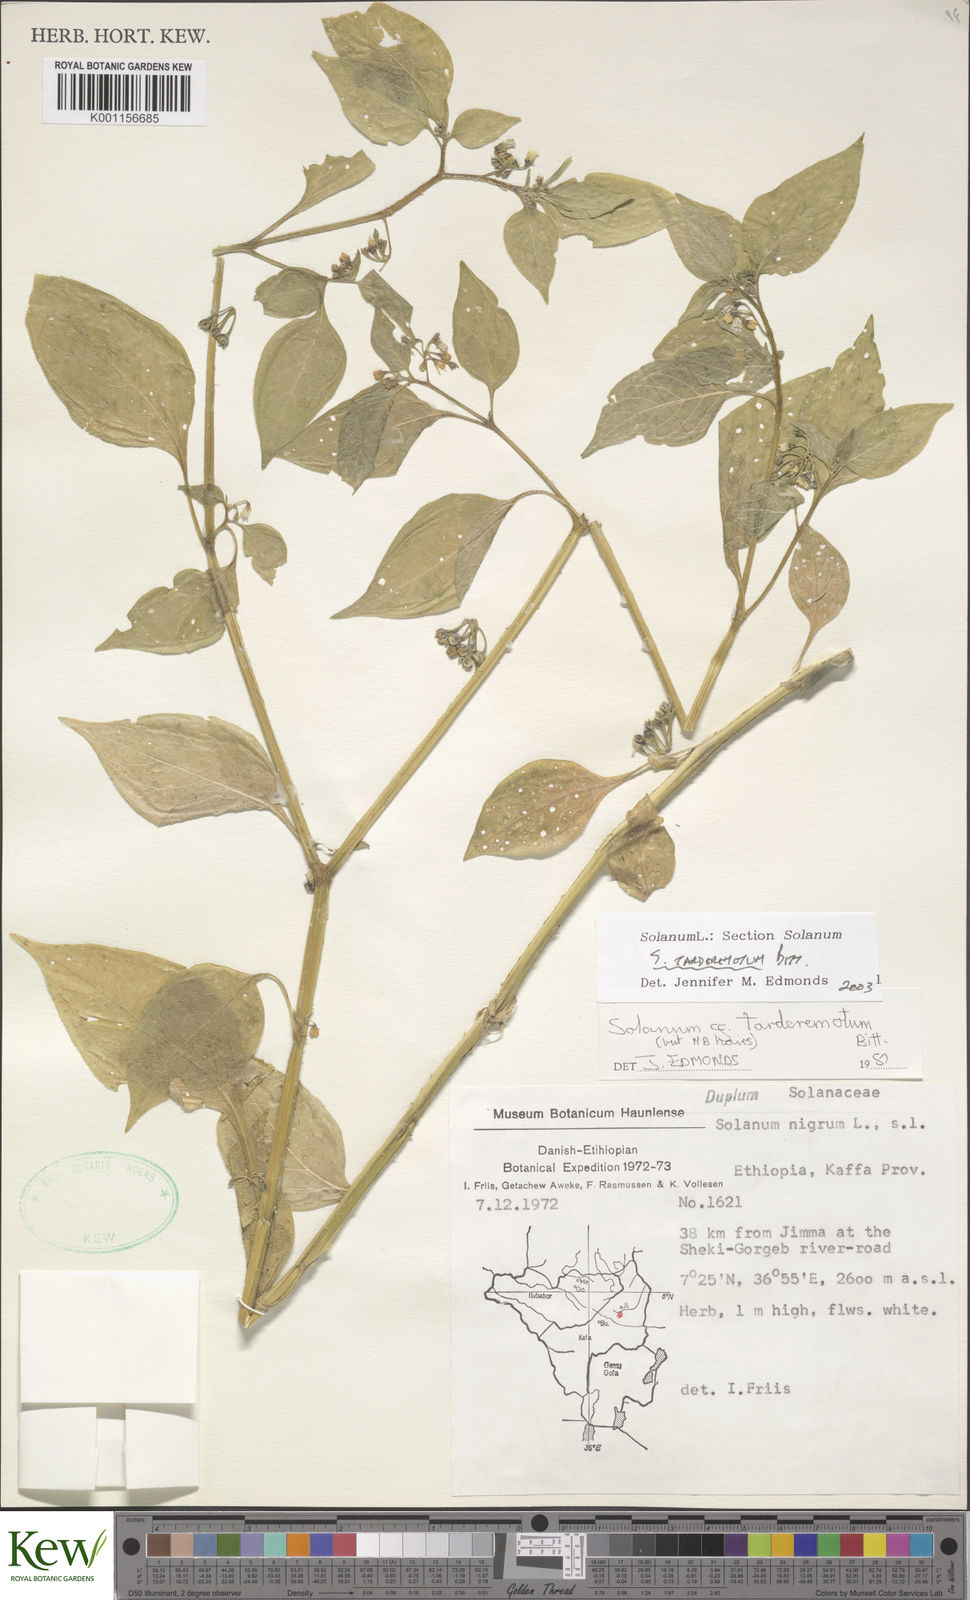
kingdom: Plantae
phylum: Tracheophyta
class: Magnoliopsida
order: Solanales
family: Solanaceae
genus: Solanum
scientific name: Solanum tarderemotum
